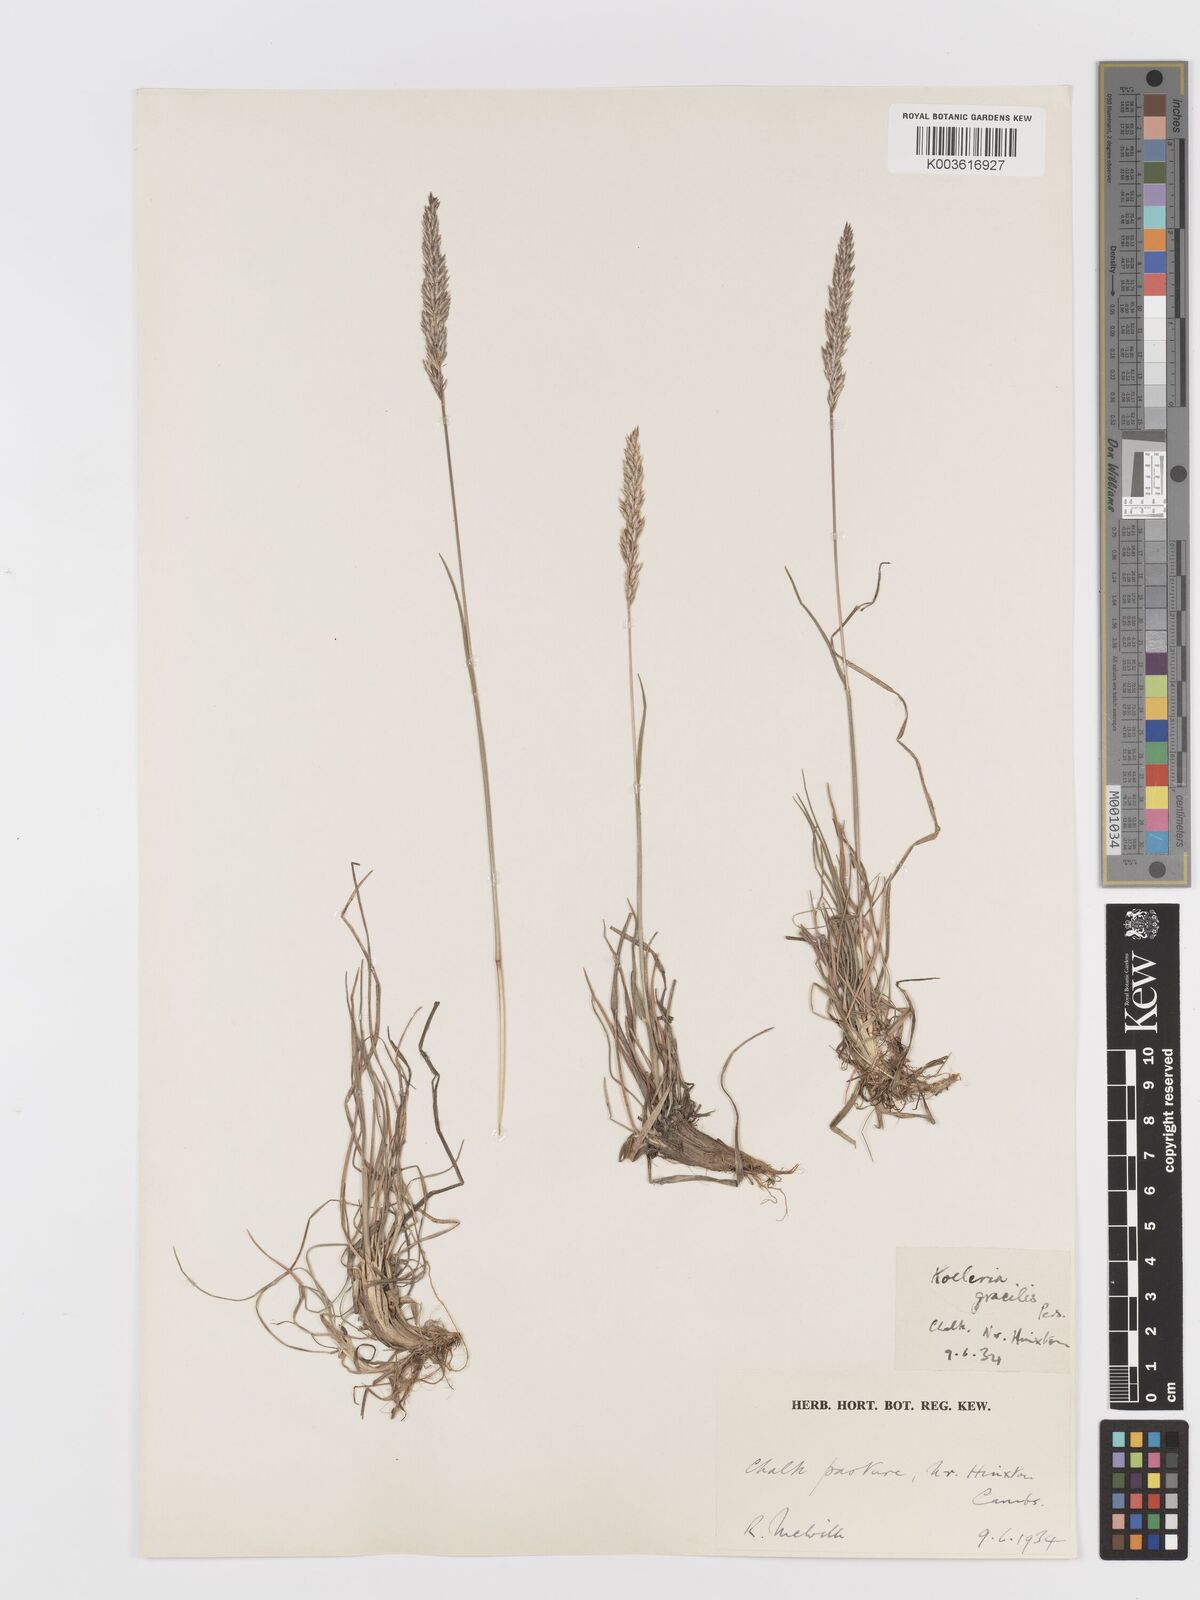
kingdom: Plantae
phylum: Tracheophyta
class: Liliopsida
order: Poales
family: Poaceae
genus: Koeleria
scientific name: Koeleria macrantha
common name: Crested hair-grass
